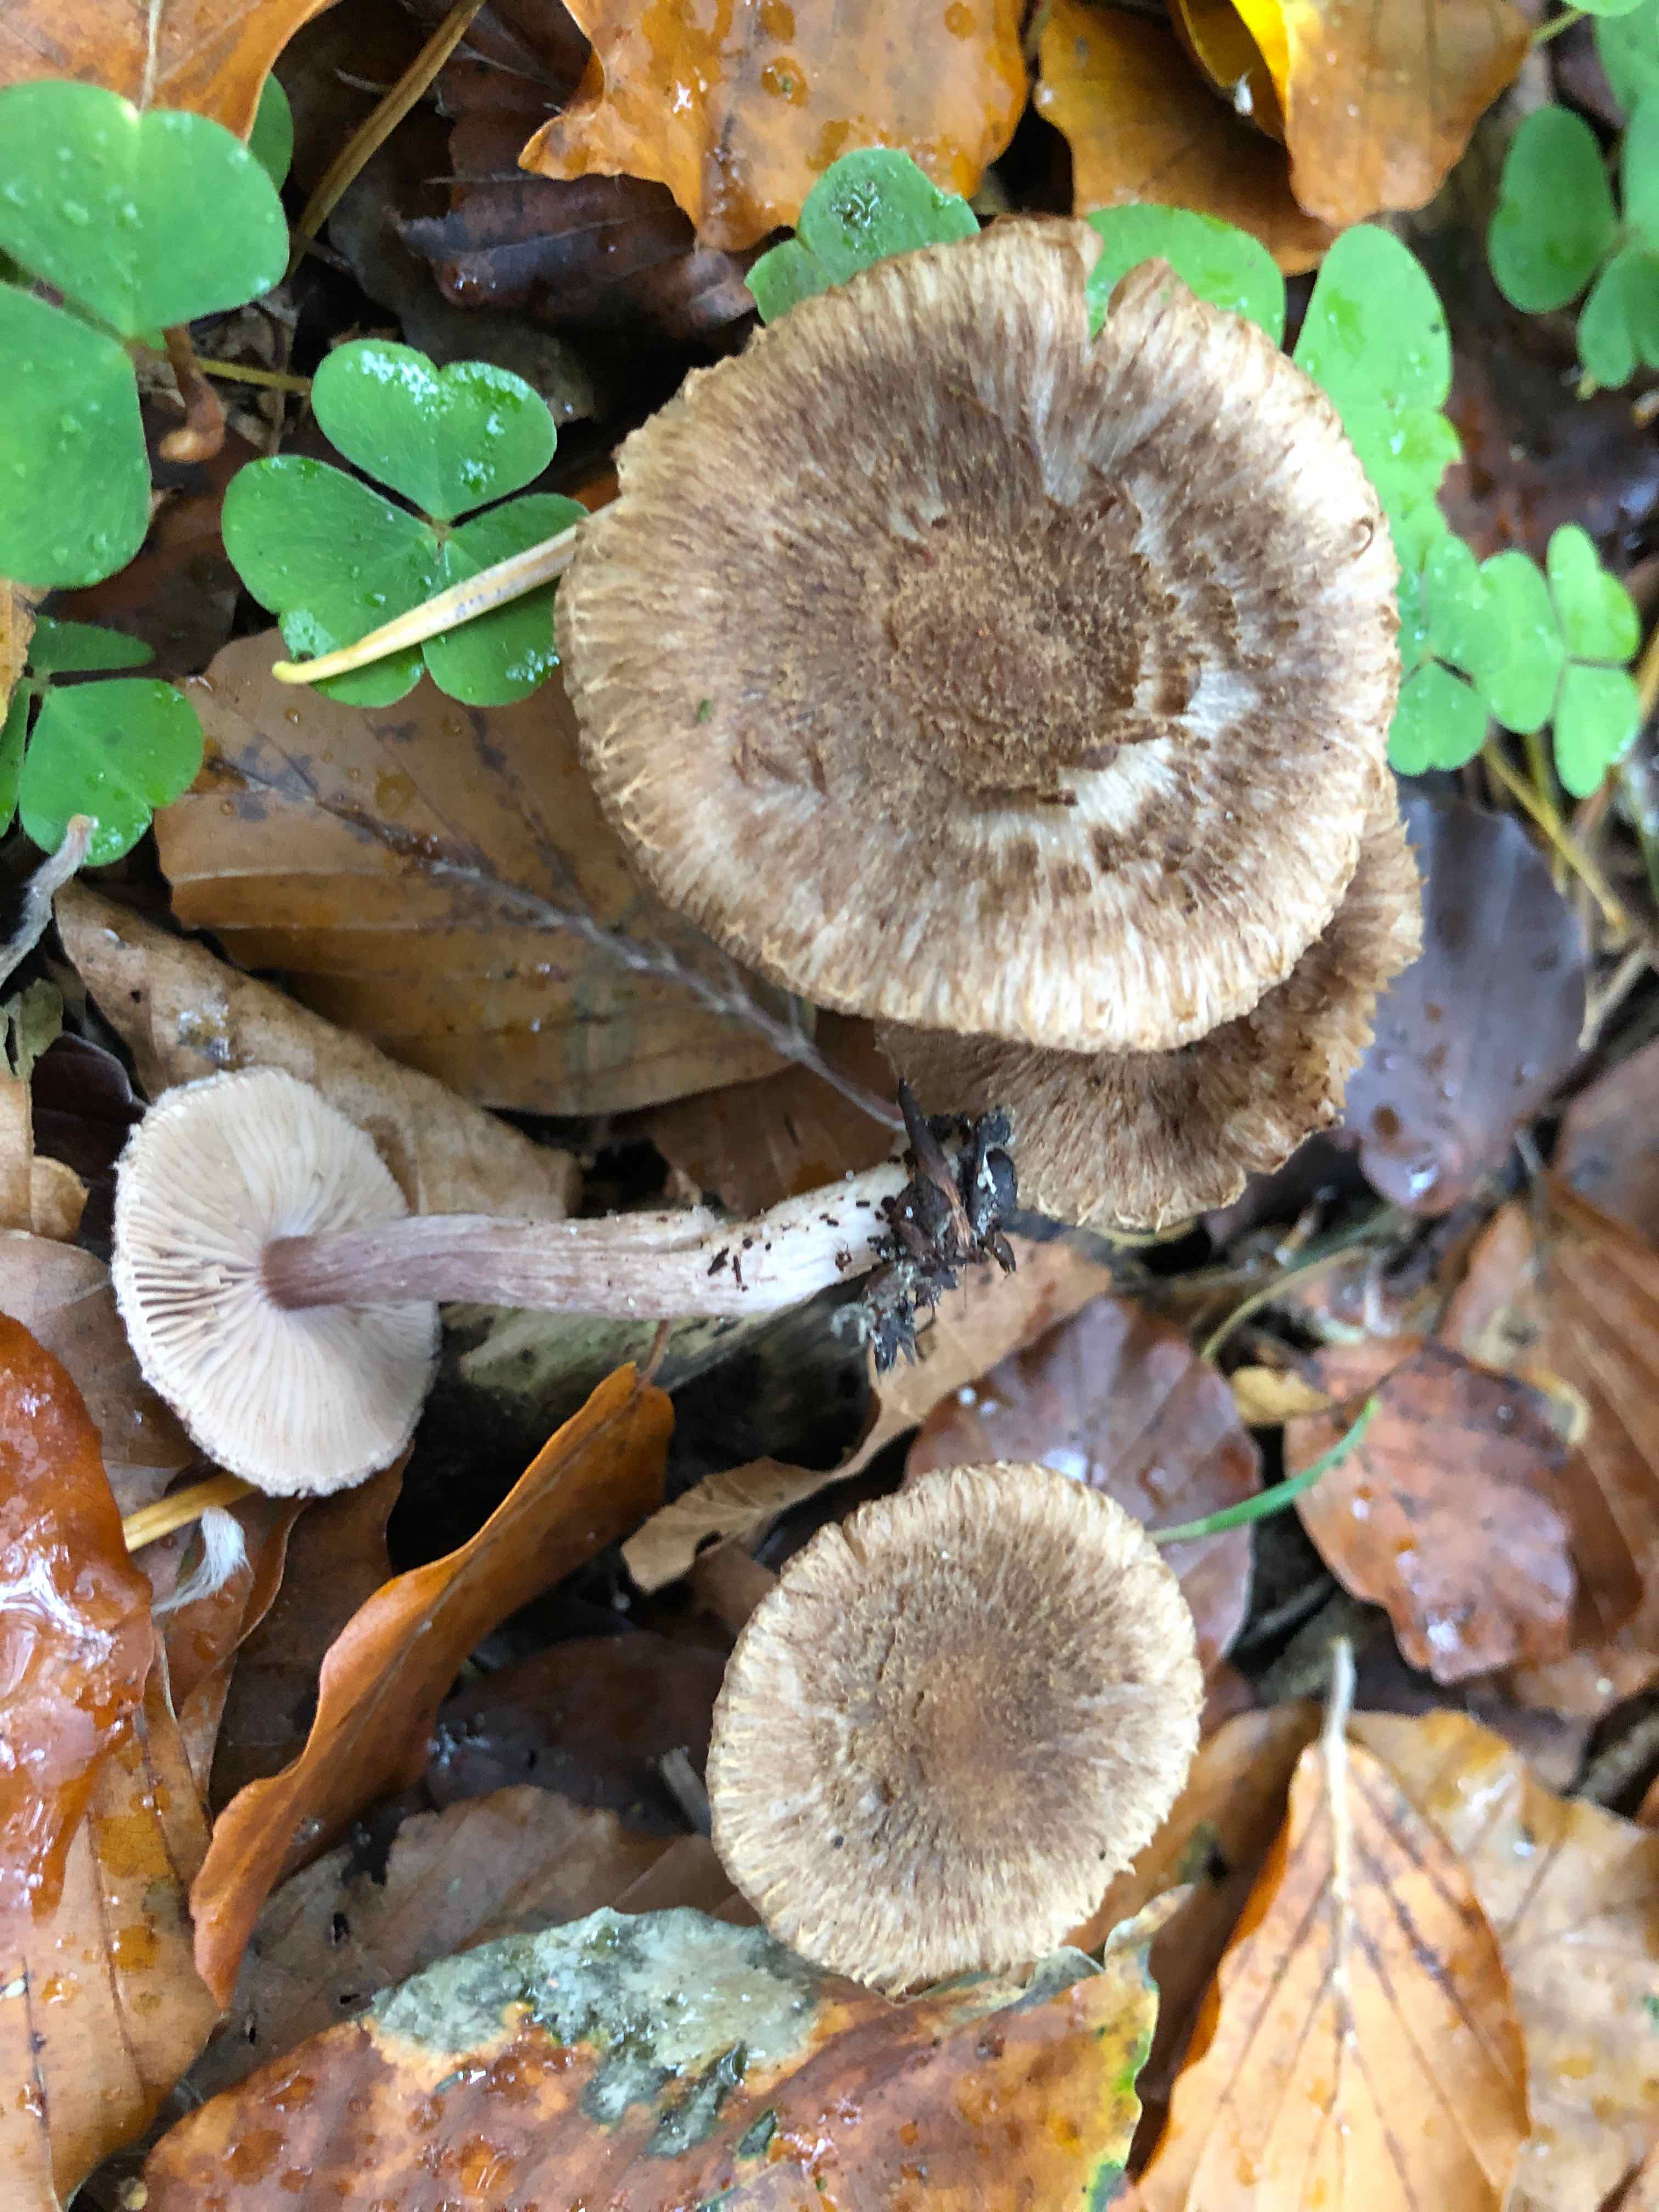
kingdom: Fungi
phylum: Basidiomycota
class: Agaricomycetes
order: Agaricales
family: Inocybaceae
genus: Inocybe
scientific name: Inocybe cincinnata
